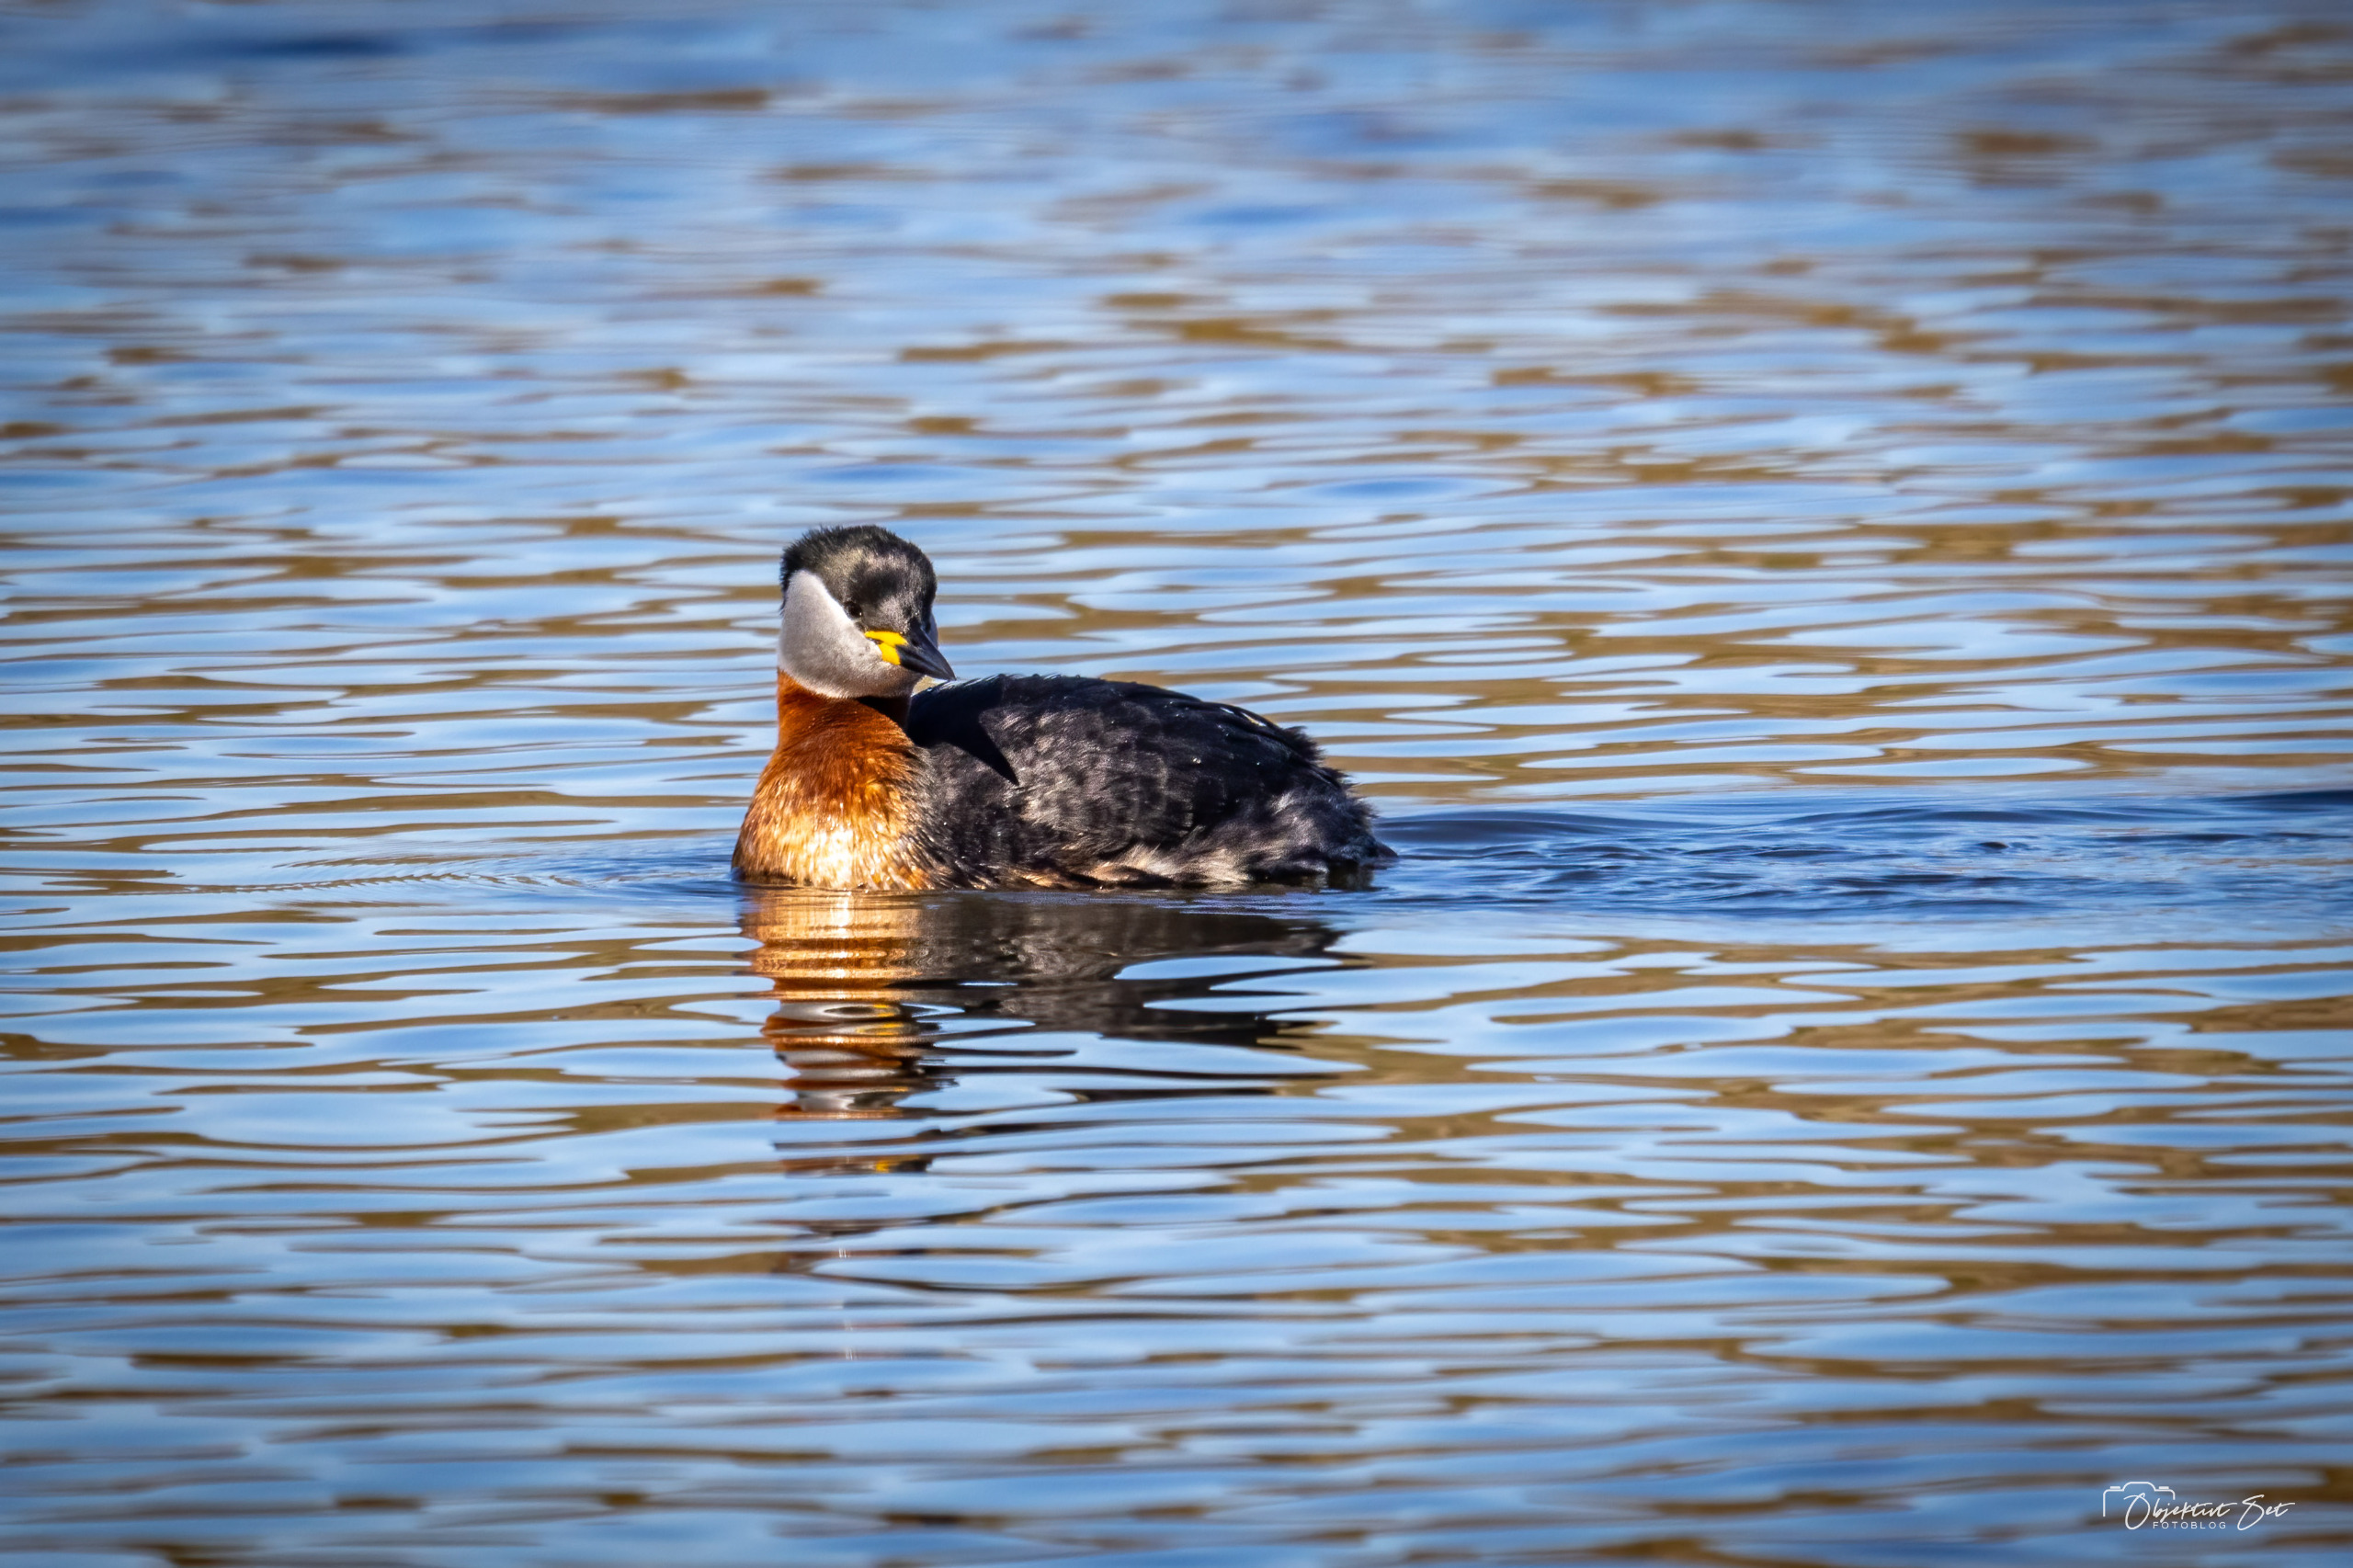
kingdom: Animalia
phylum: Chordata
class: Aves
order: Podicipediformes
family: Podicipedidae
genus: Podiceps
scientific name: Podiceps grisegena
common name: Gråstrubet lappedykker
